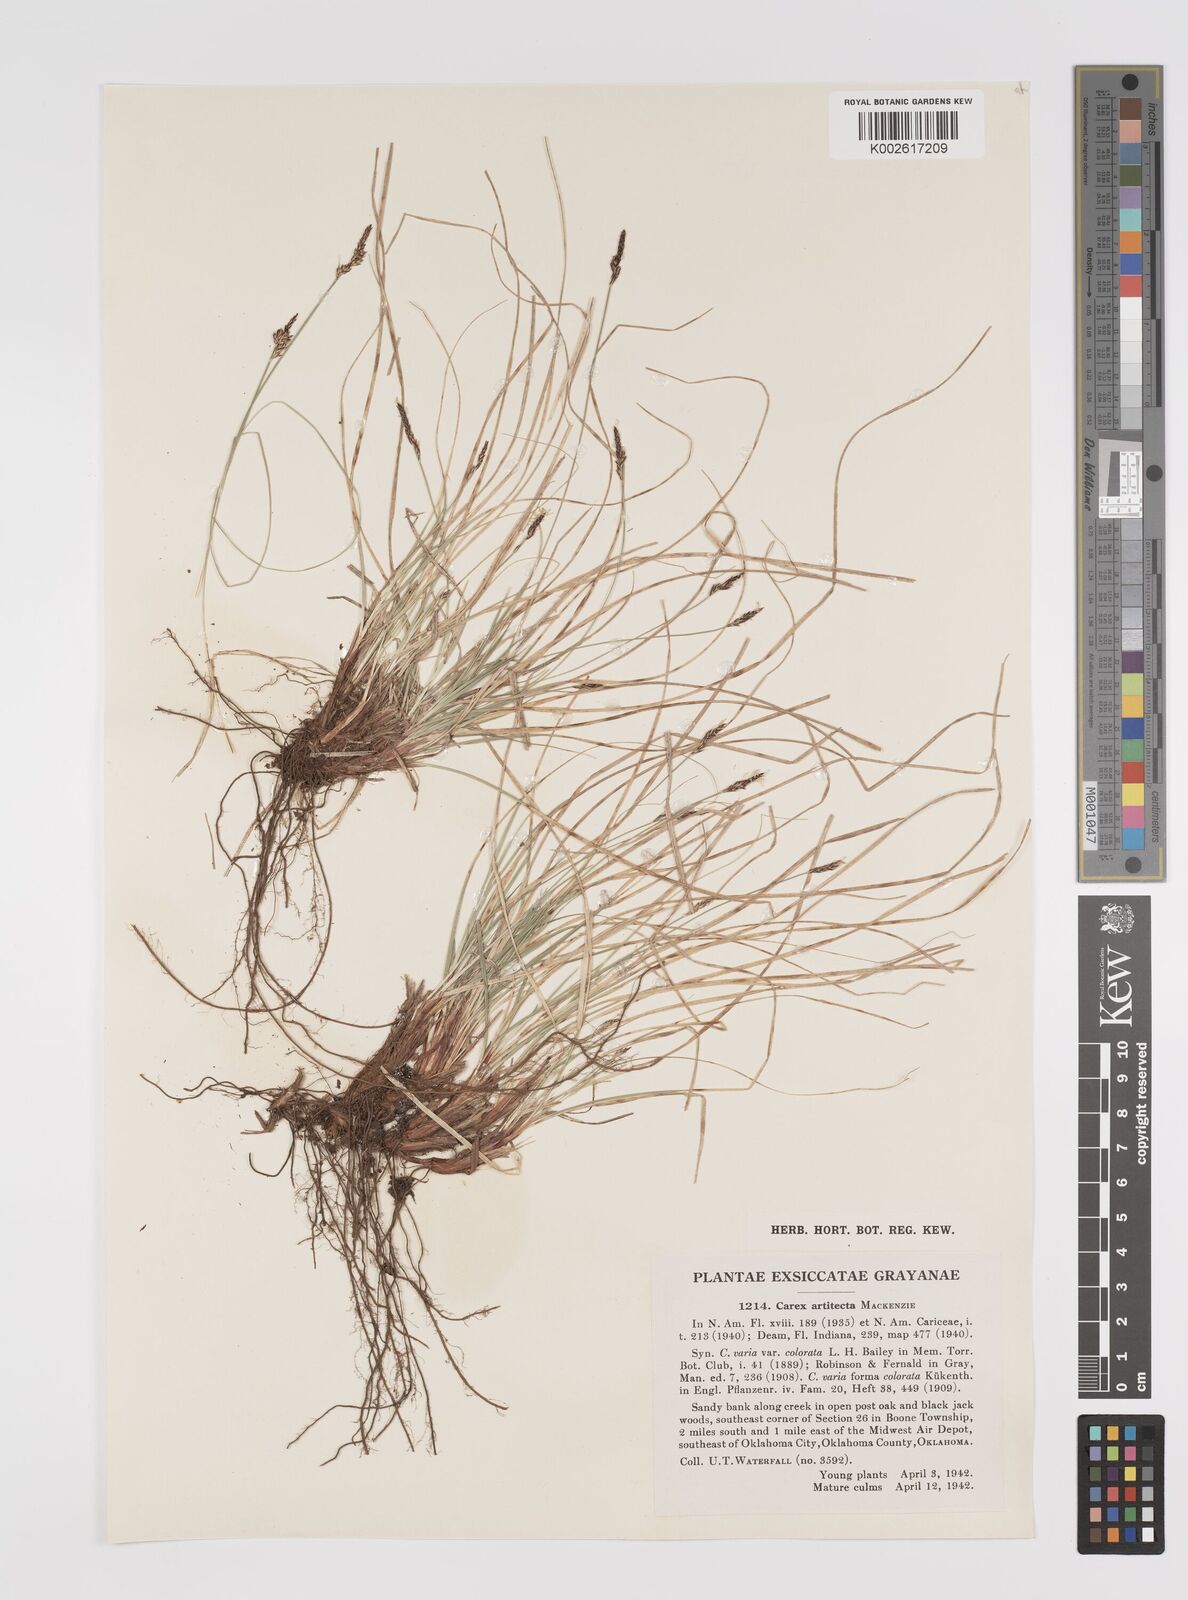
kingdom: Plantae
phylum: Tracheophyta
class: Liliopsida
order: Poales
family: Cyperaceae
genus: Carex
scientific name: Carex albicans
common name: Bellow-beaked sedge
